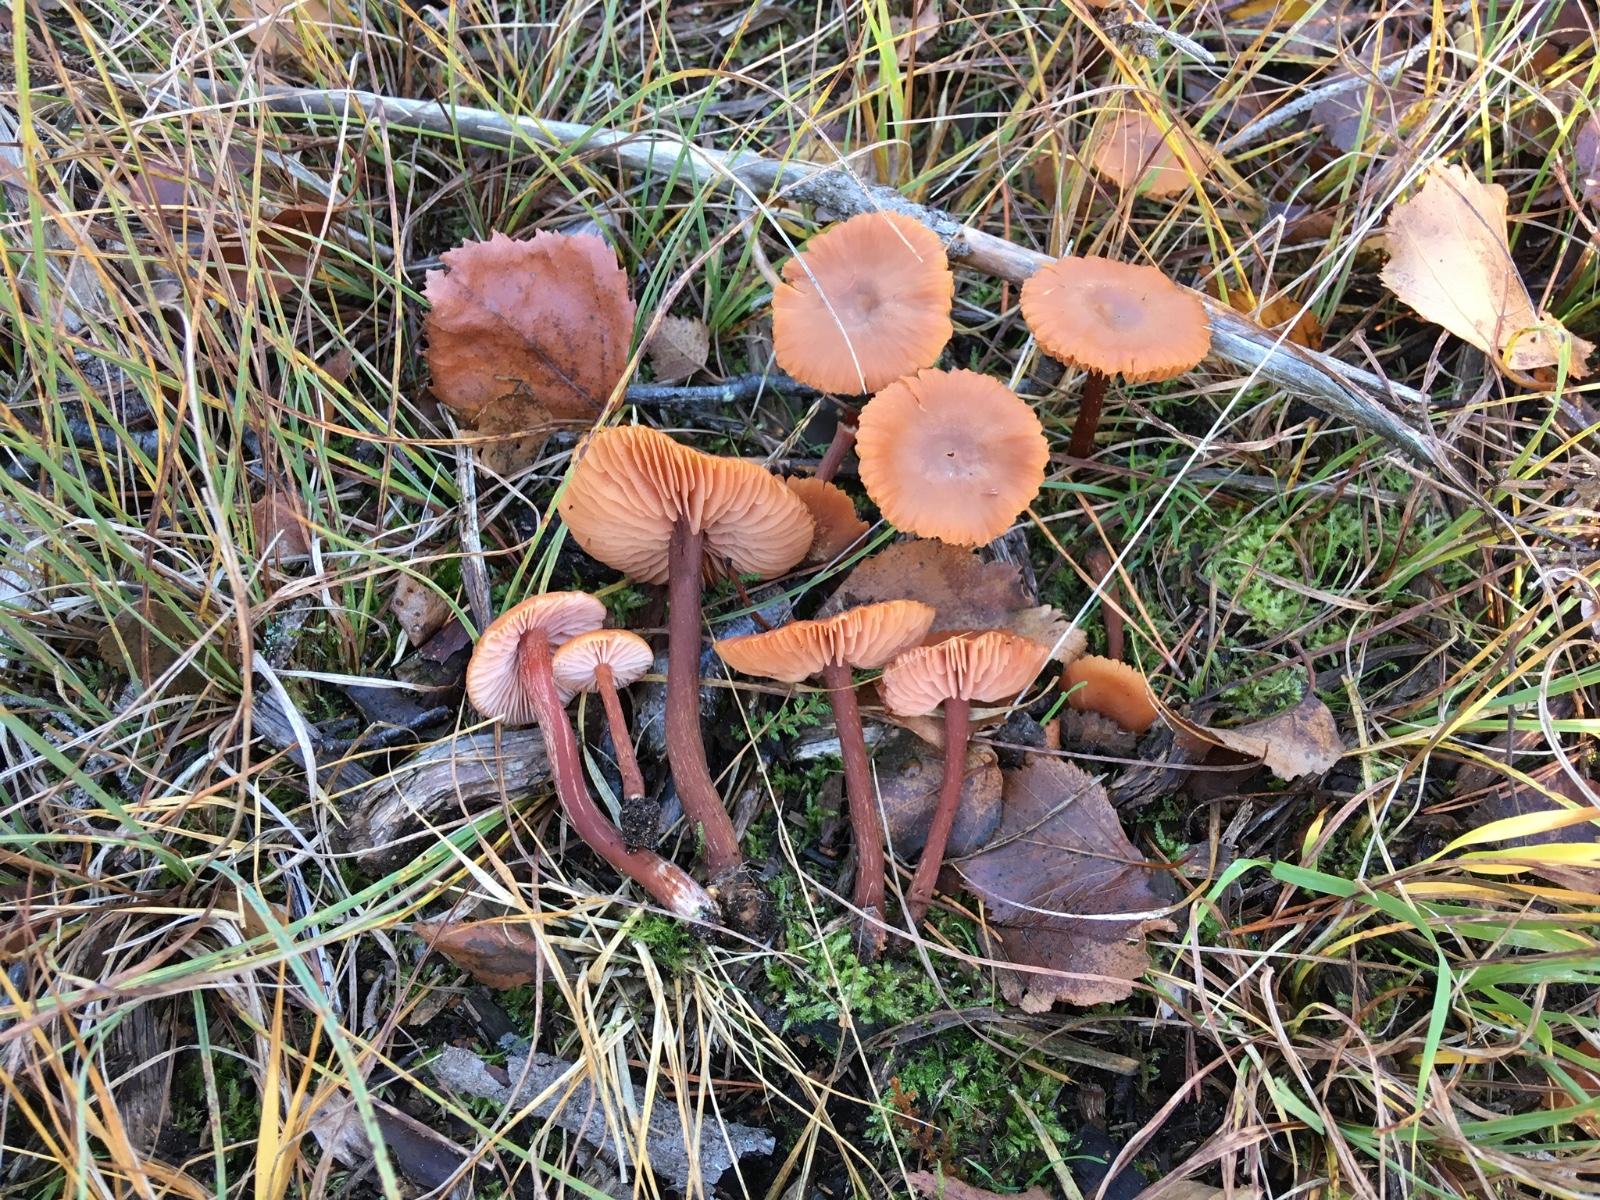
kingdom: Fungi
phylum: Basidiomycota
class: Agaricomycetes
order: Agaricales
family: Hydnangiaceae
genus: Laccaria
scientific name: Laccaria proxima
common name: stor ametysthat
